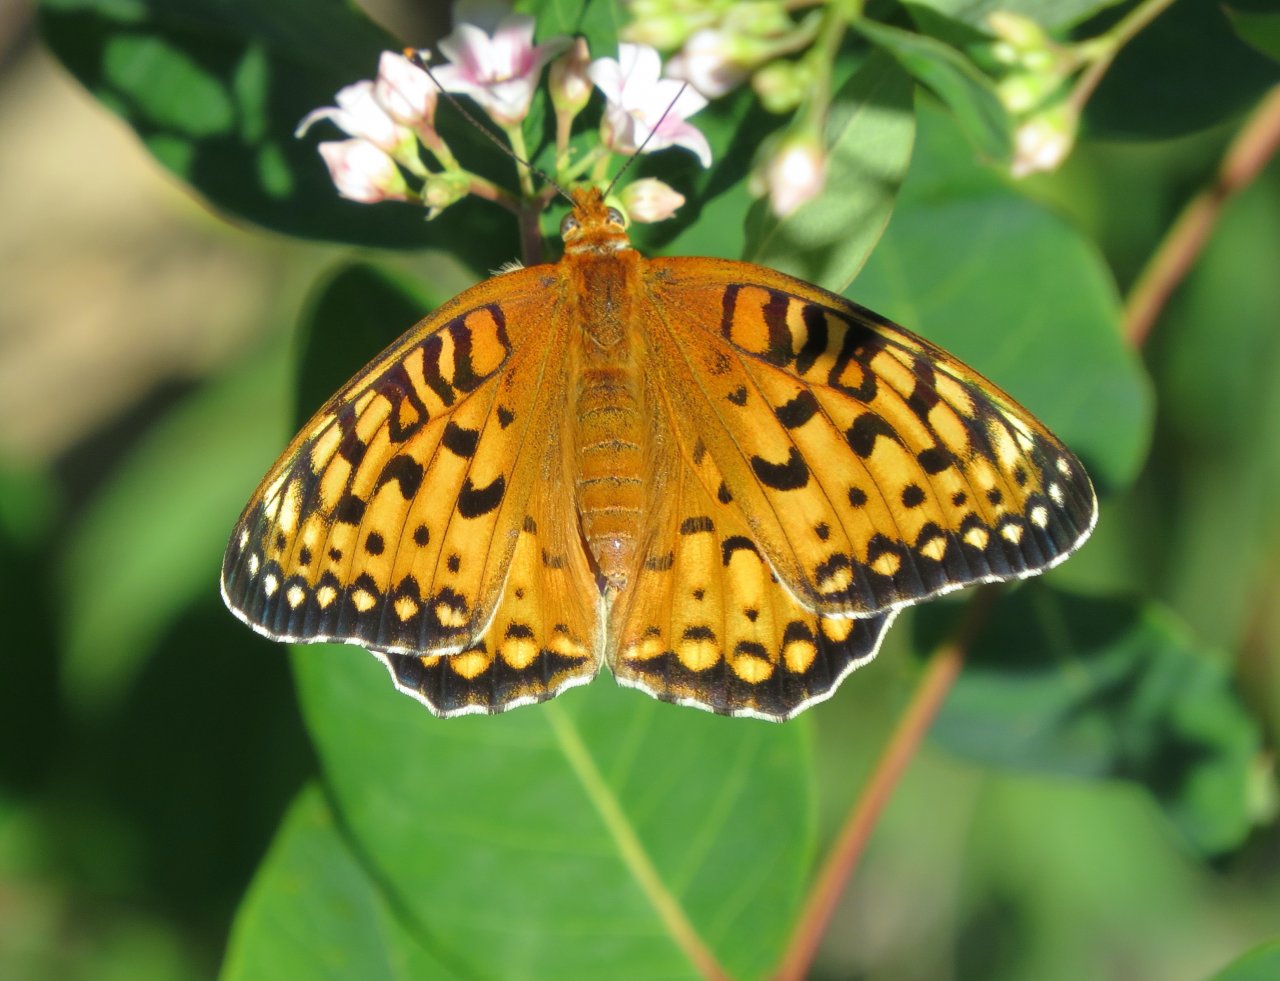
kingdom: Animalia
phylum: Arthropoda
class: Insecta
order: Lepidoptera
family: Nymphalidae
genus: Speyeria
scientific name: Speyeria edwardsii
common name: Edwards' Fritillary
